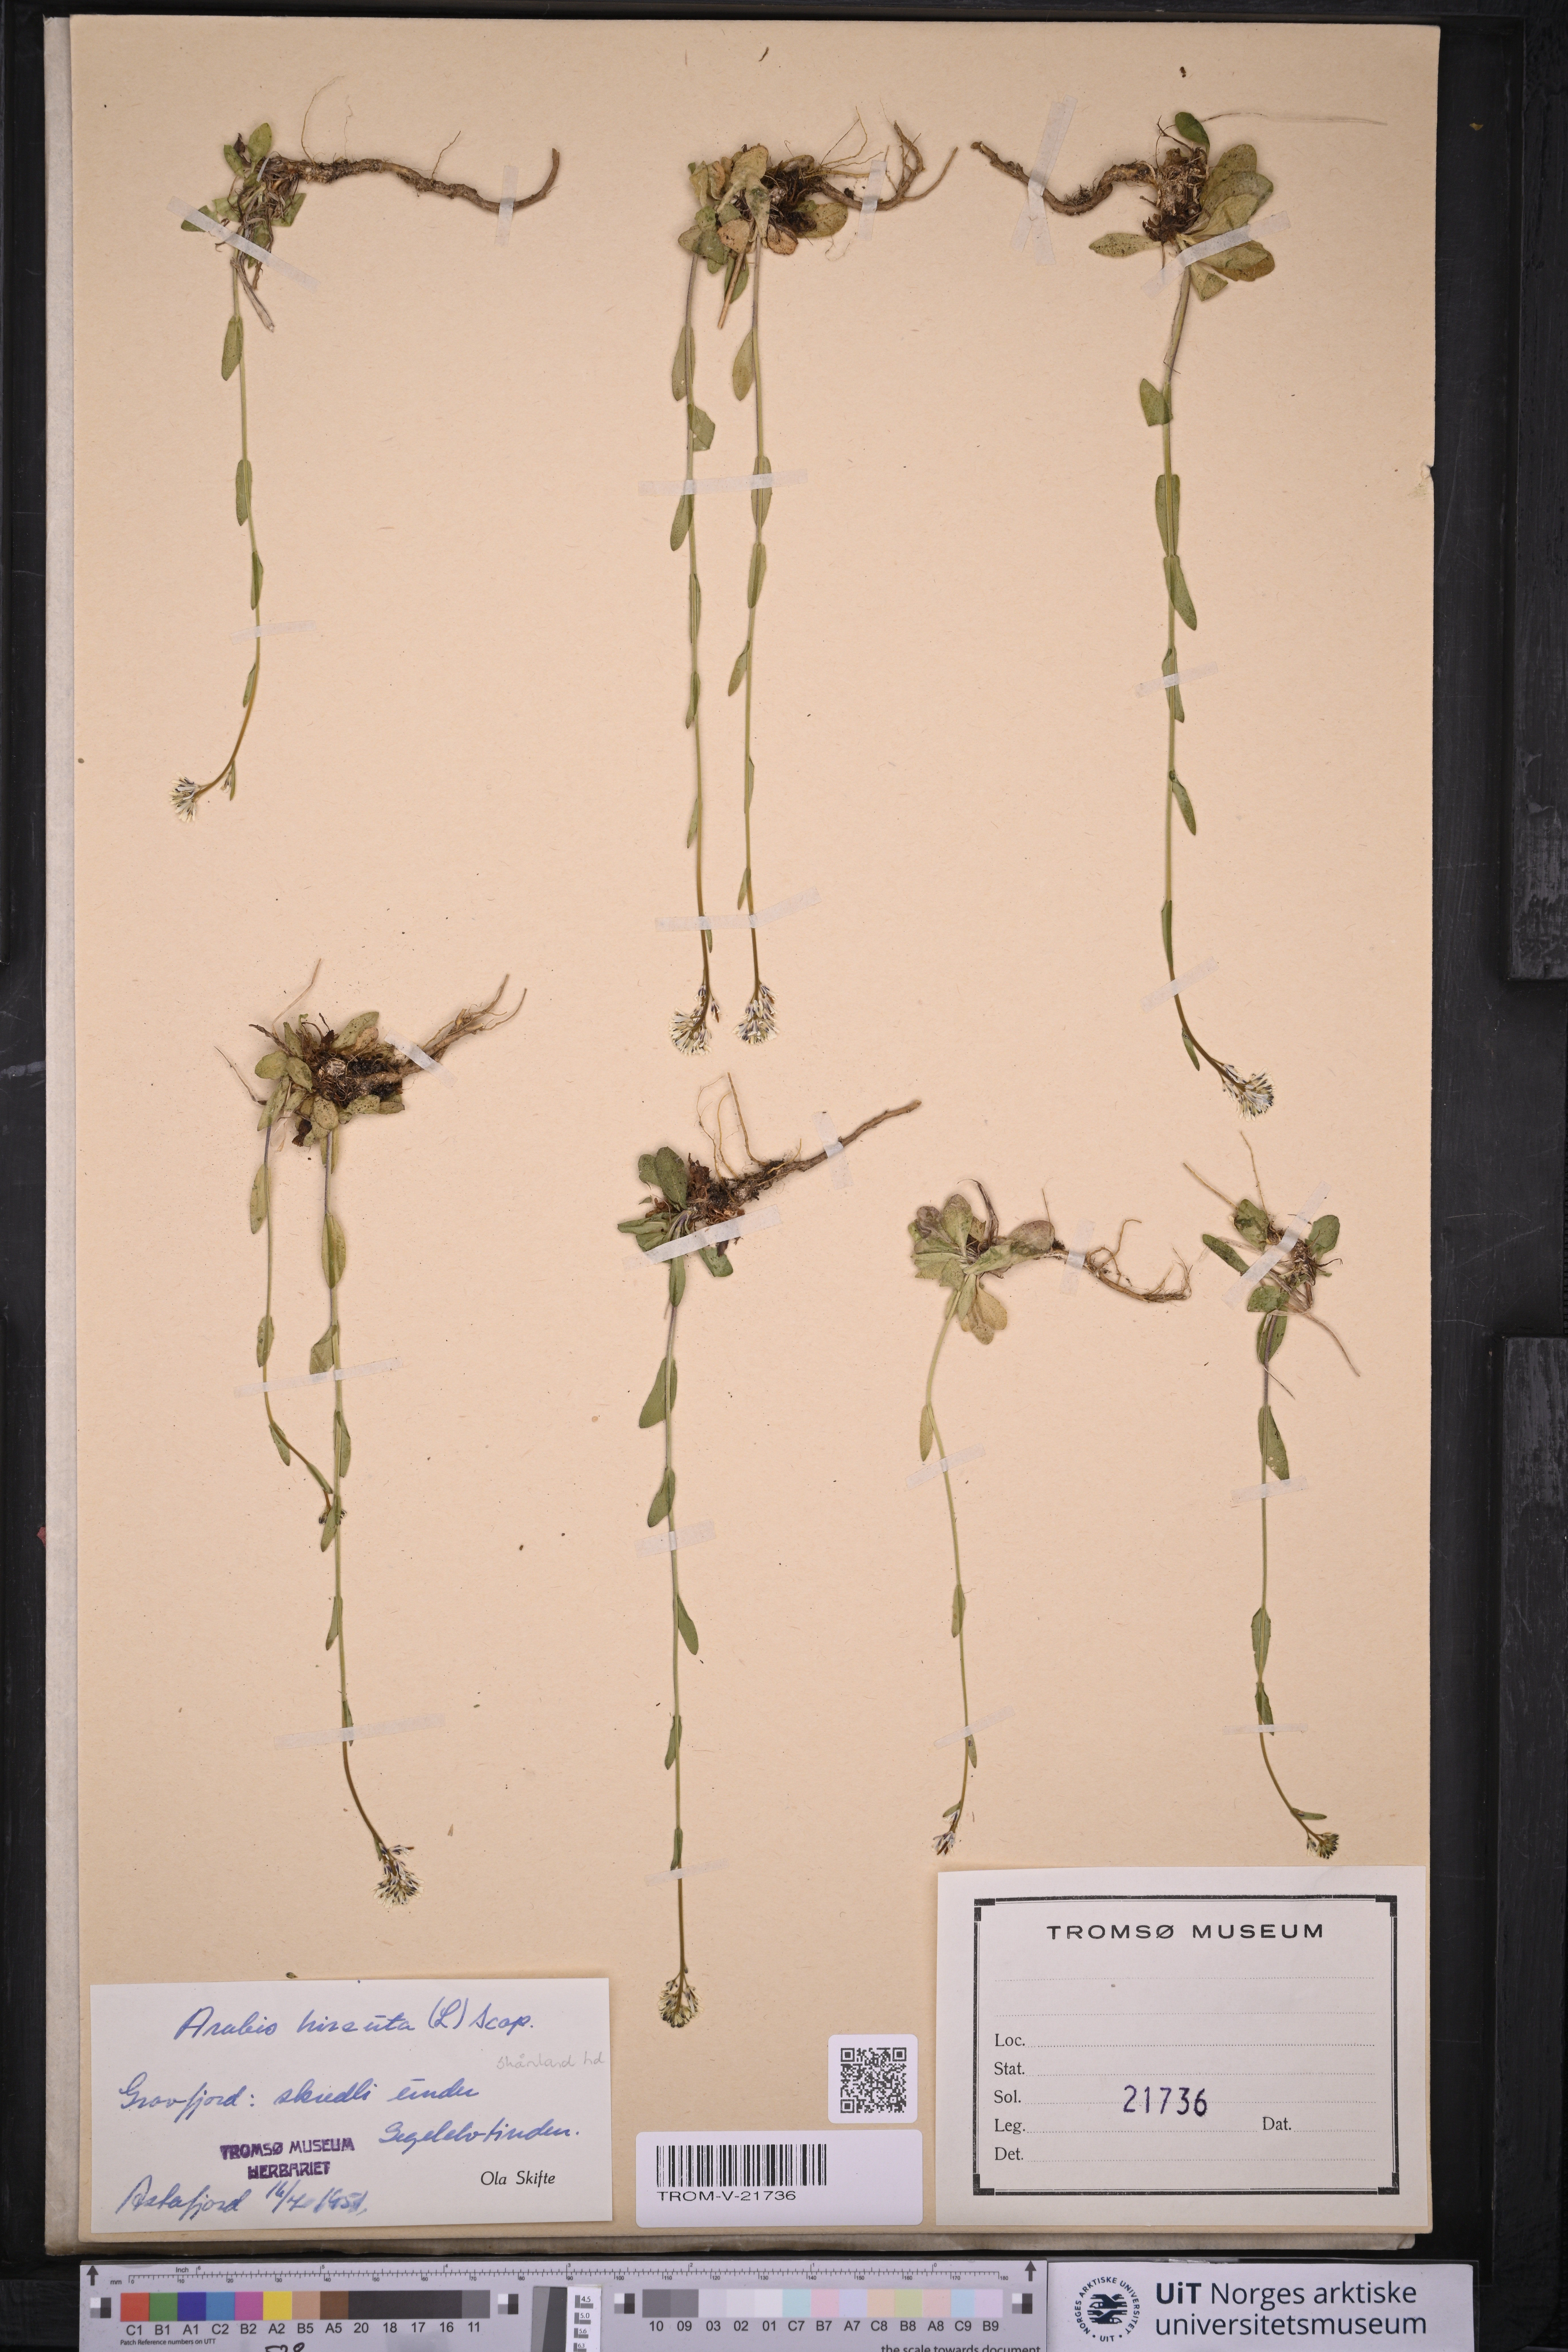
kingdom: Plantae
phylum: Tracheophyta
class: Magnoliopsida
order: Brassicales
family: Brassicaceae
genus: Arabis
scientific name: Arabis hirsuta
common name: Hairy rock-cress
